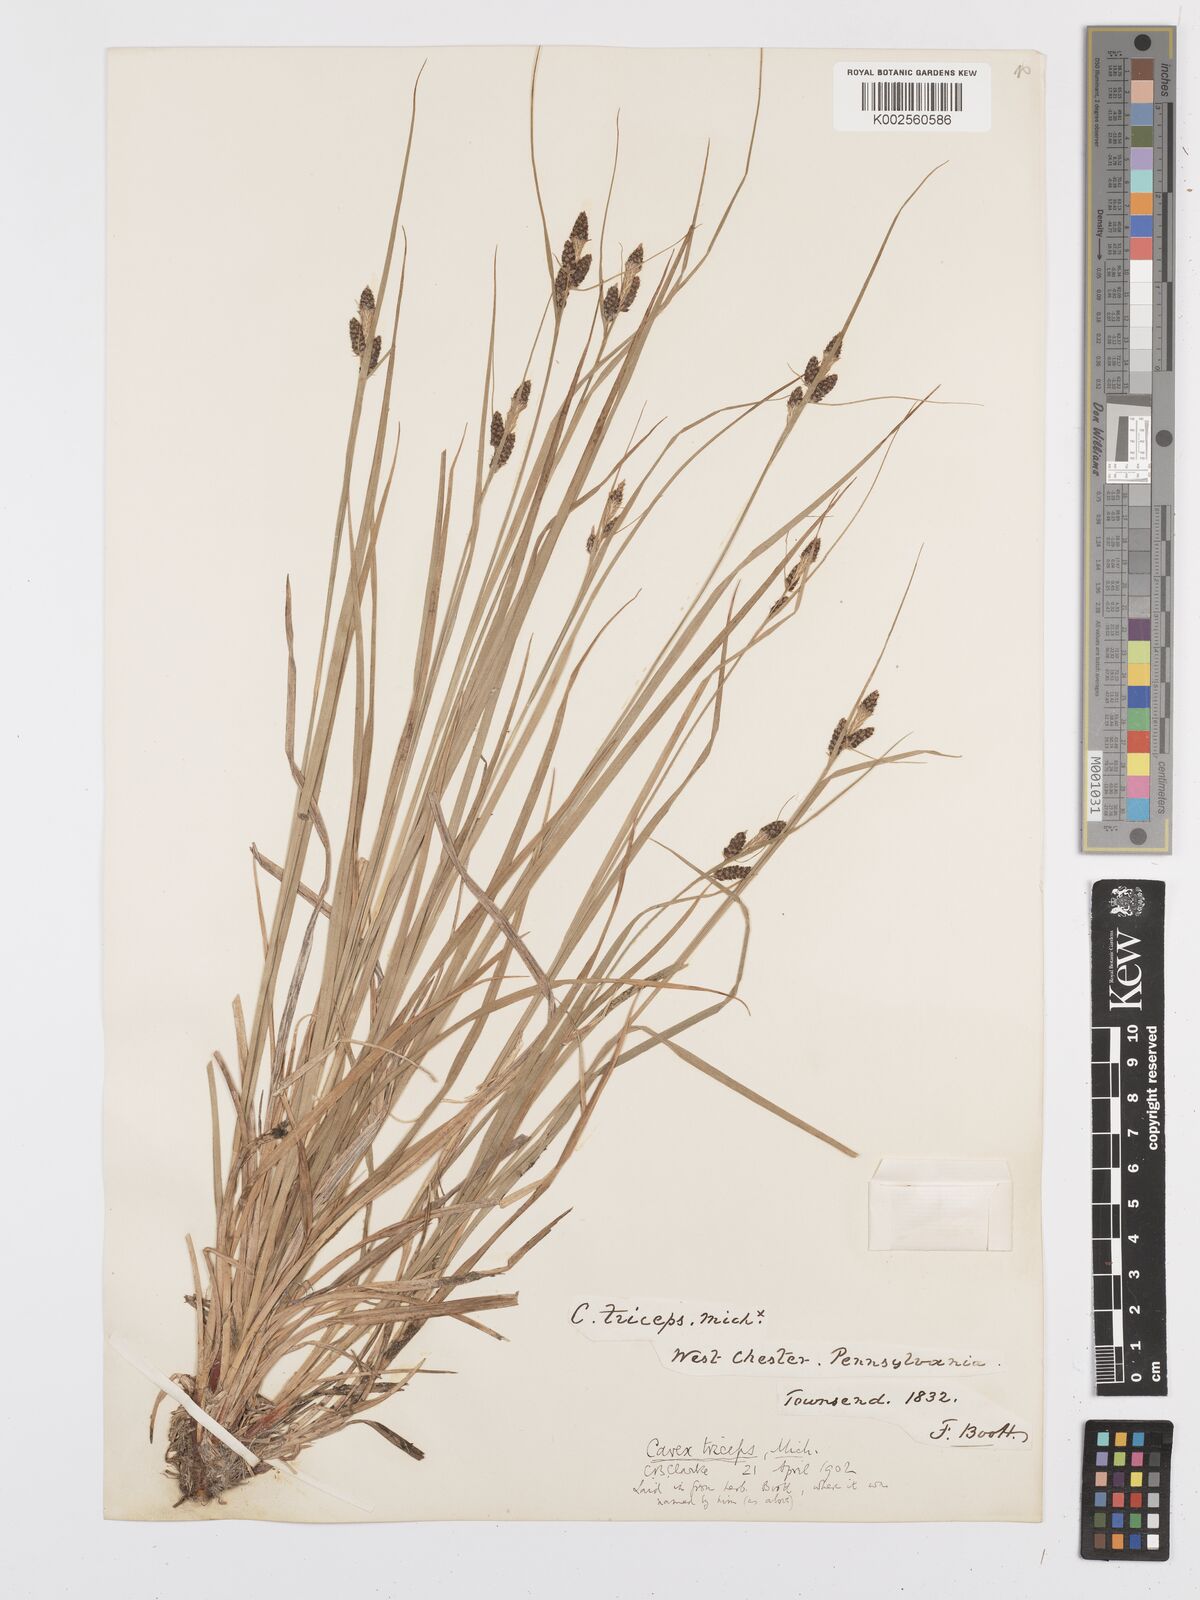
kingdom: Plantae
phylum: Tracheophyta
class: Liliopsida
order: Poales
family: Cyperaceae
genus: Carex
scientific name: Carex complanata
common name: Hirsute sedge
